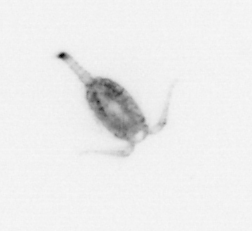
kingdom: Animalia
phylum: Arthropoda
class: Copepoda
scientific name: Copepoda
